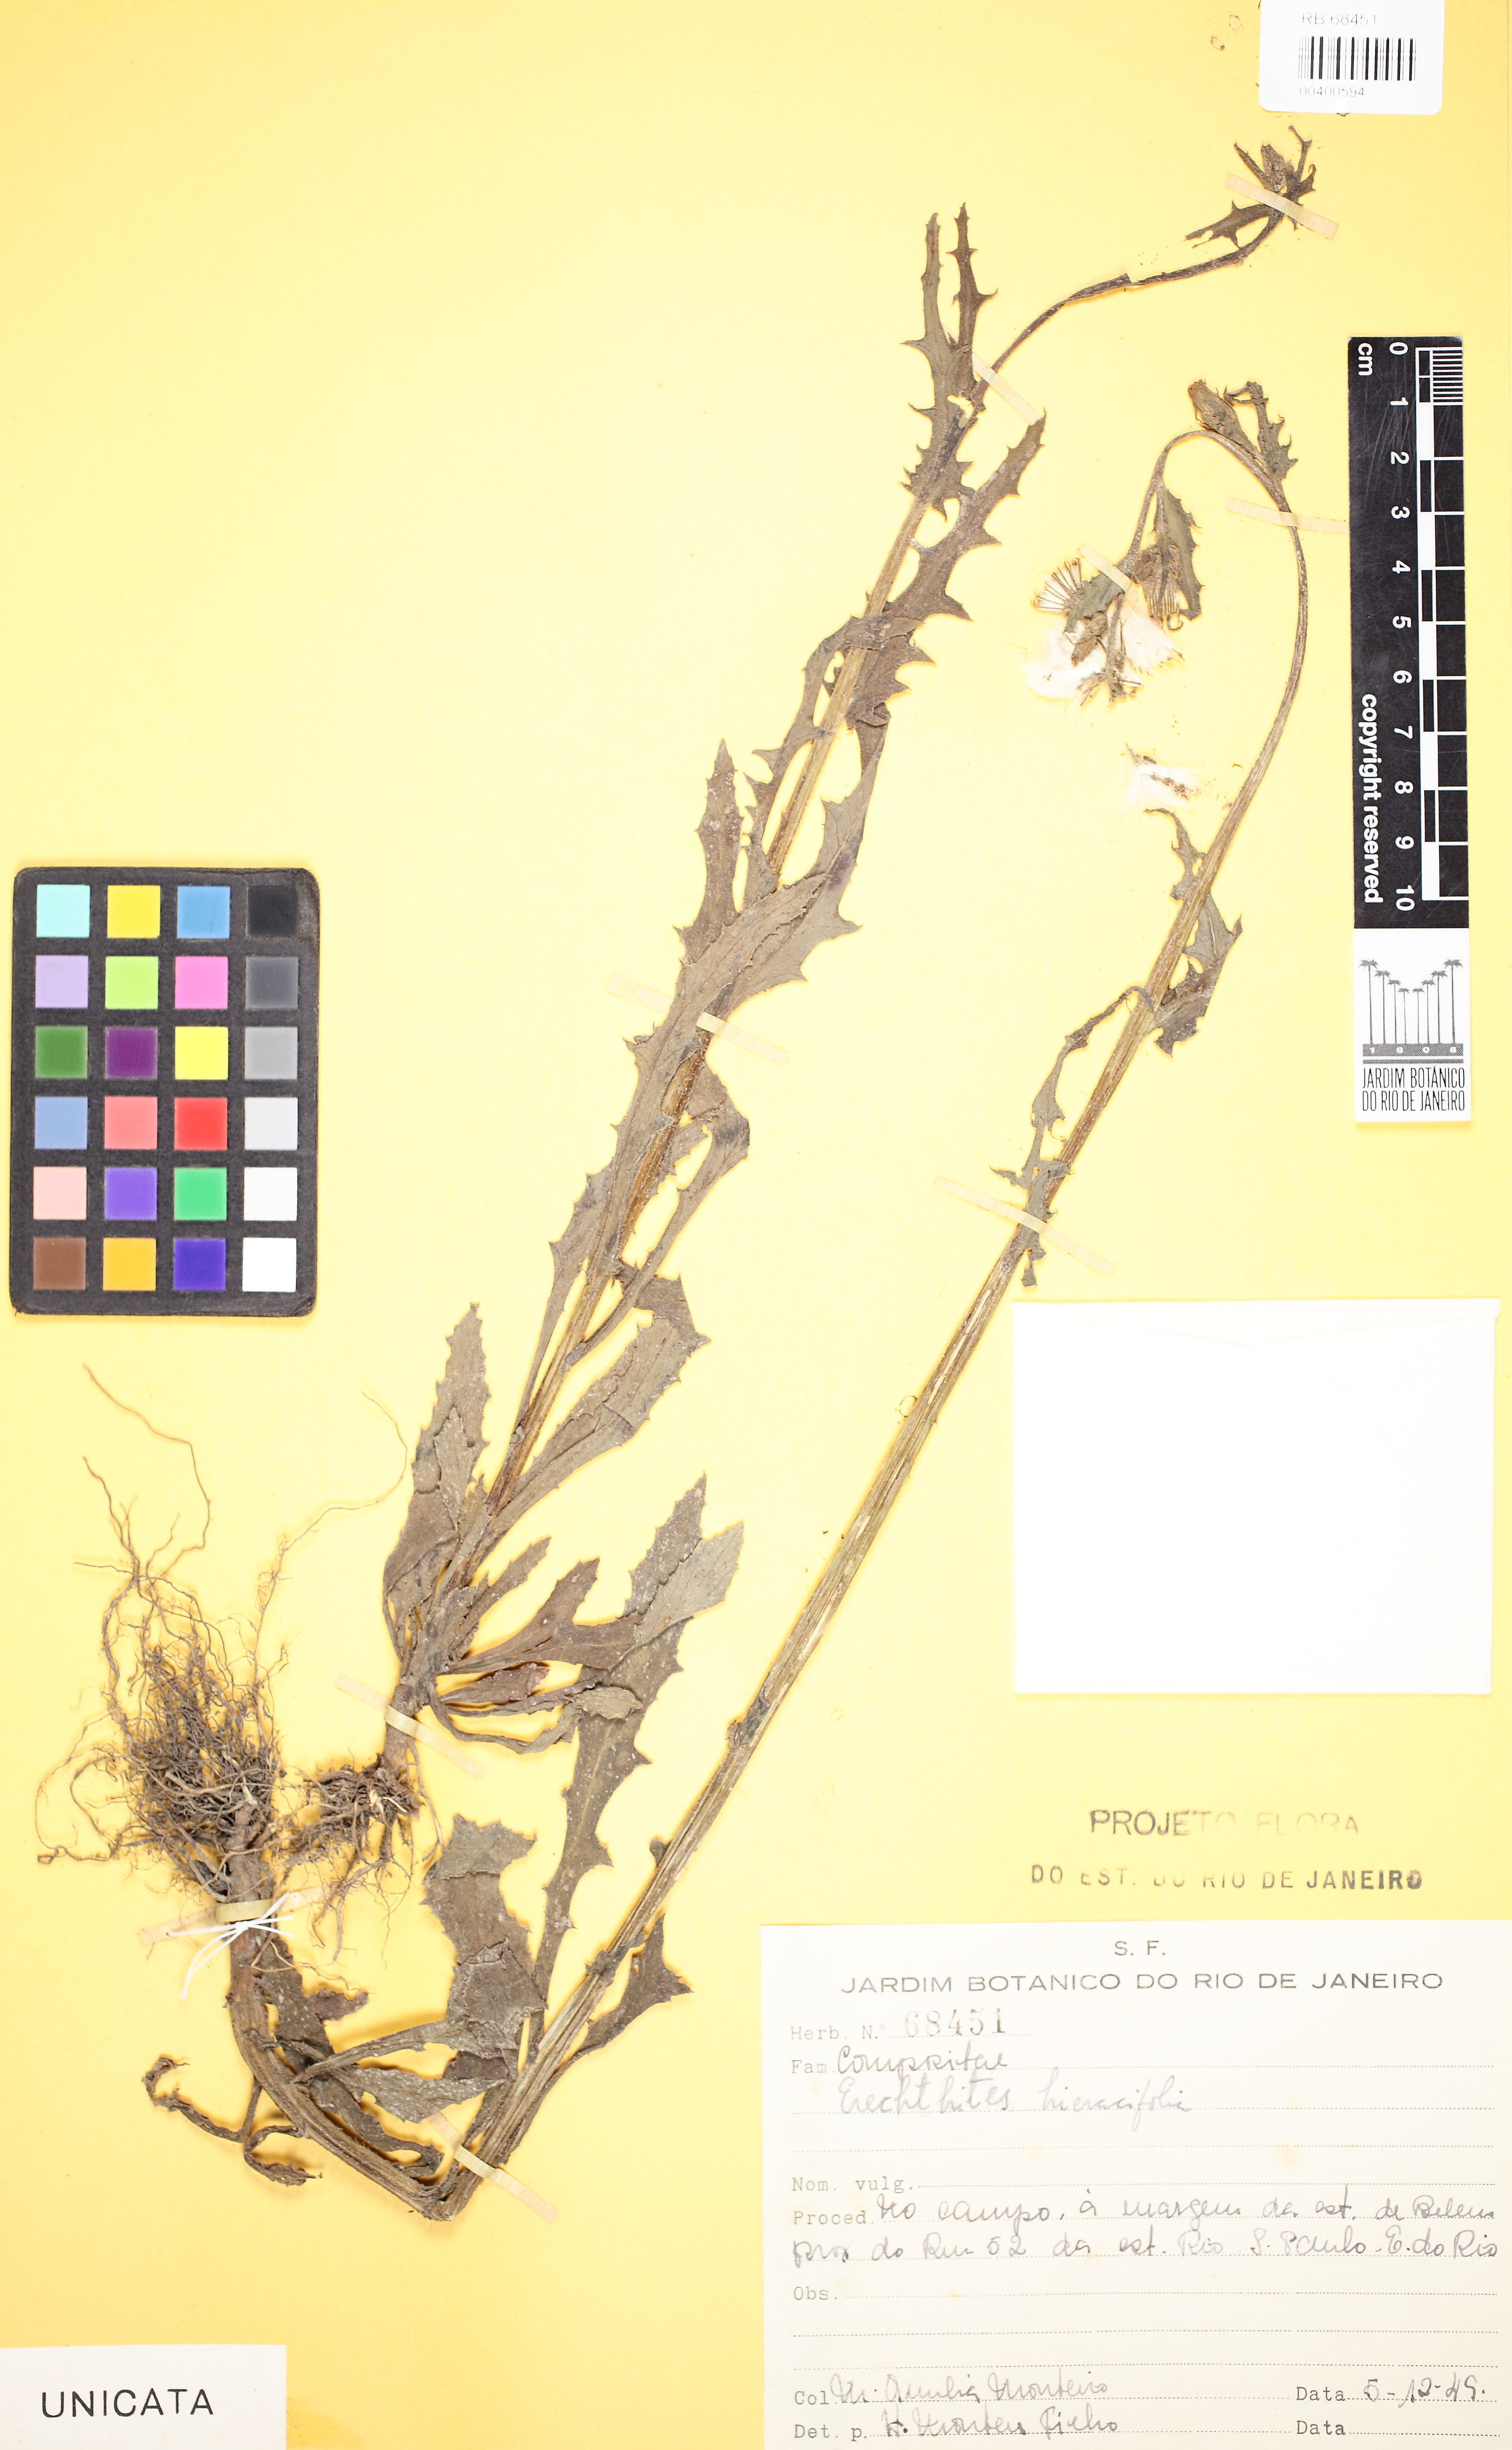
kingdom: Plantae
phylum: Tracheophyta
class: Magnoliopsida
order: Asterales
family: Asteraceae
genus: Erechtites
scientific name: Erechtites hieraciifolius
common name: American burnweed
